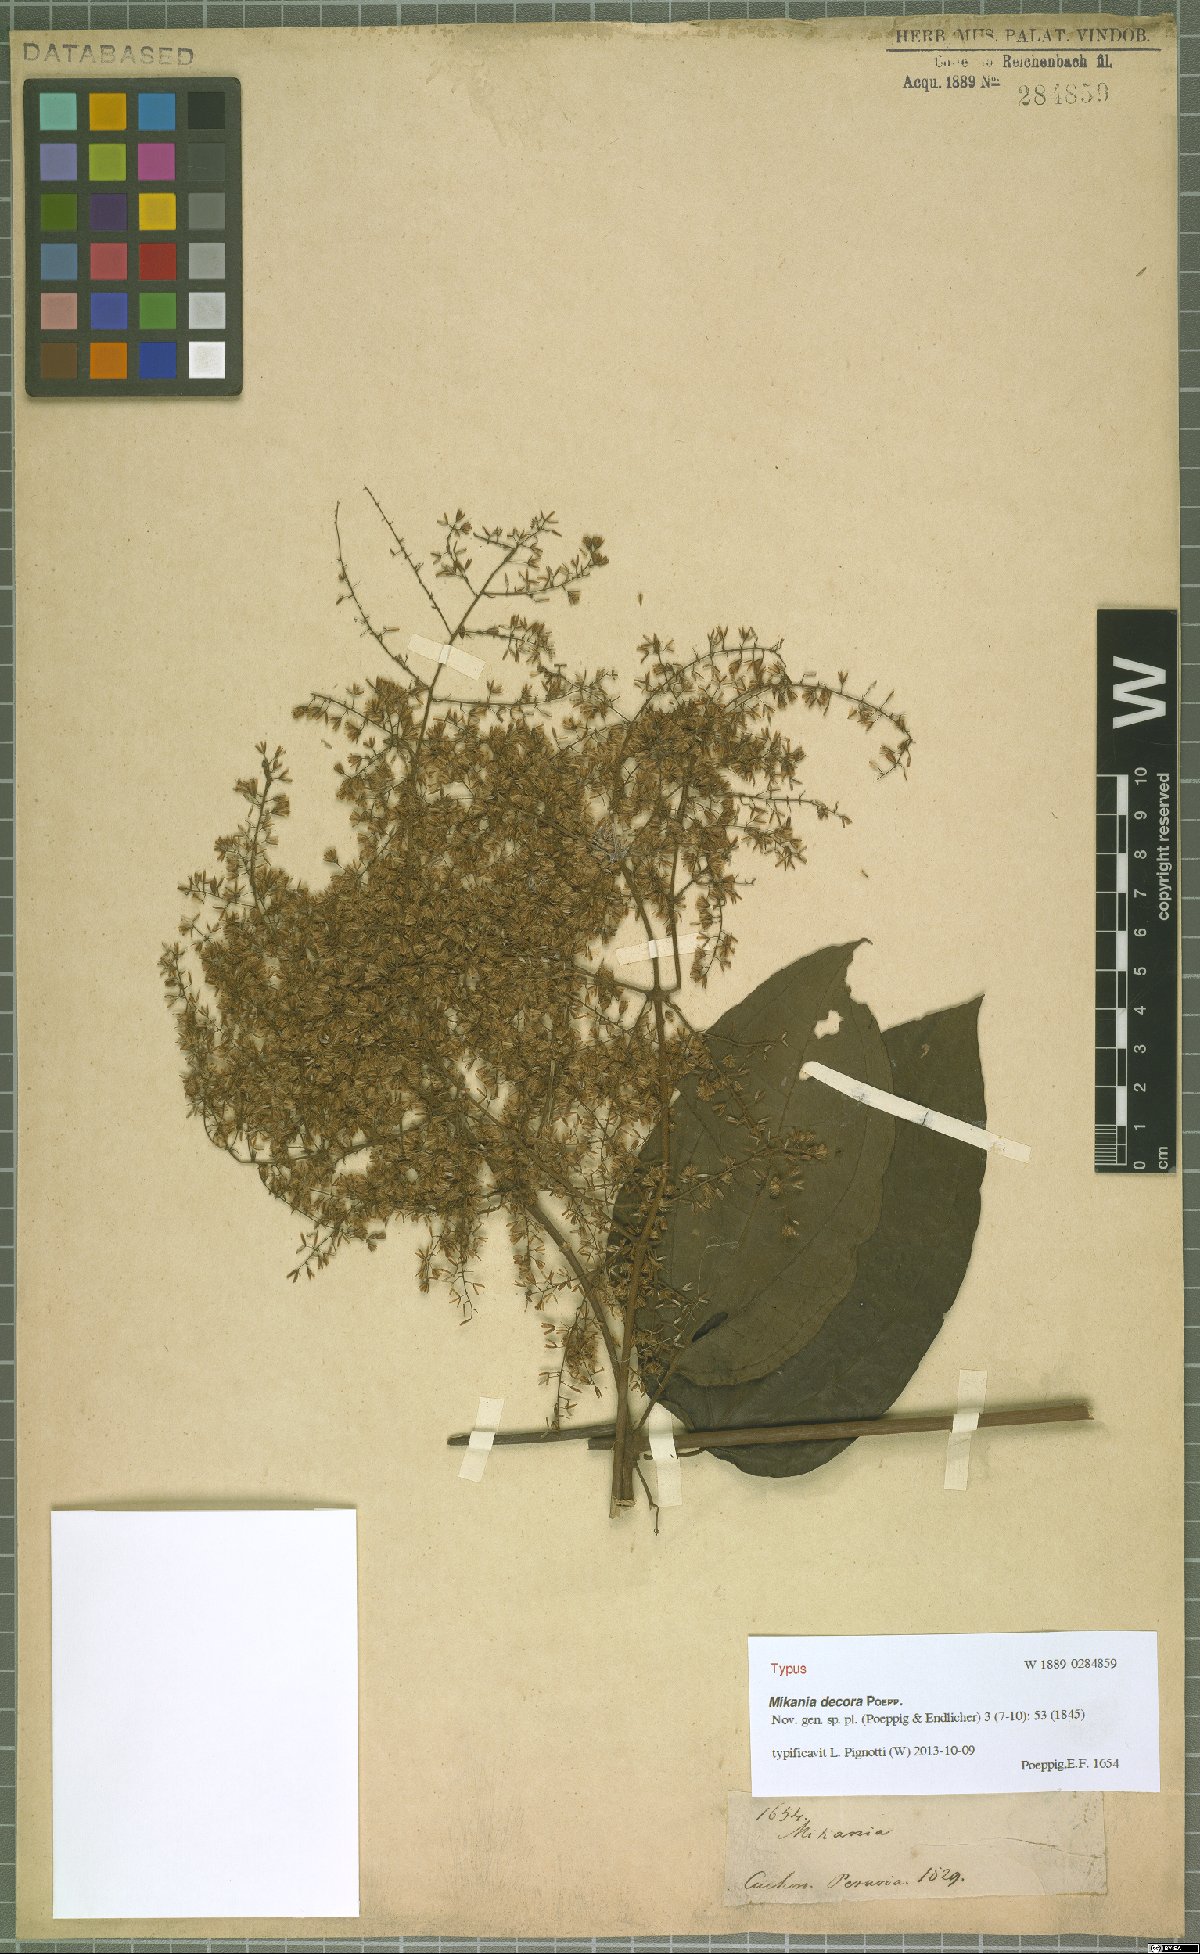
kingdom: Plantae
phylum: Tracheophyta
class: Magnoliopsida
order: Asterales
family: Asteraceae
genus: Mikania
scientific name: Mikania decora
